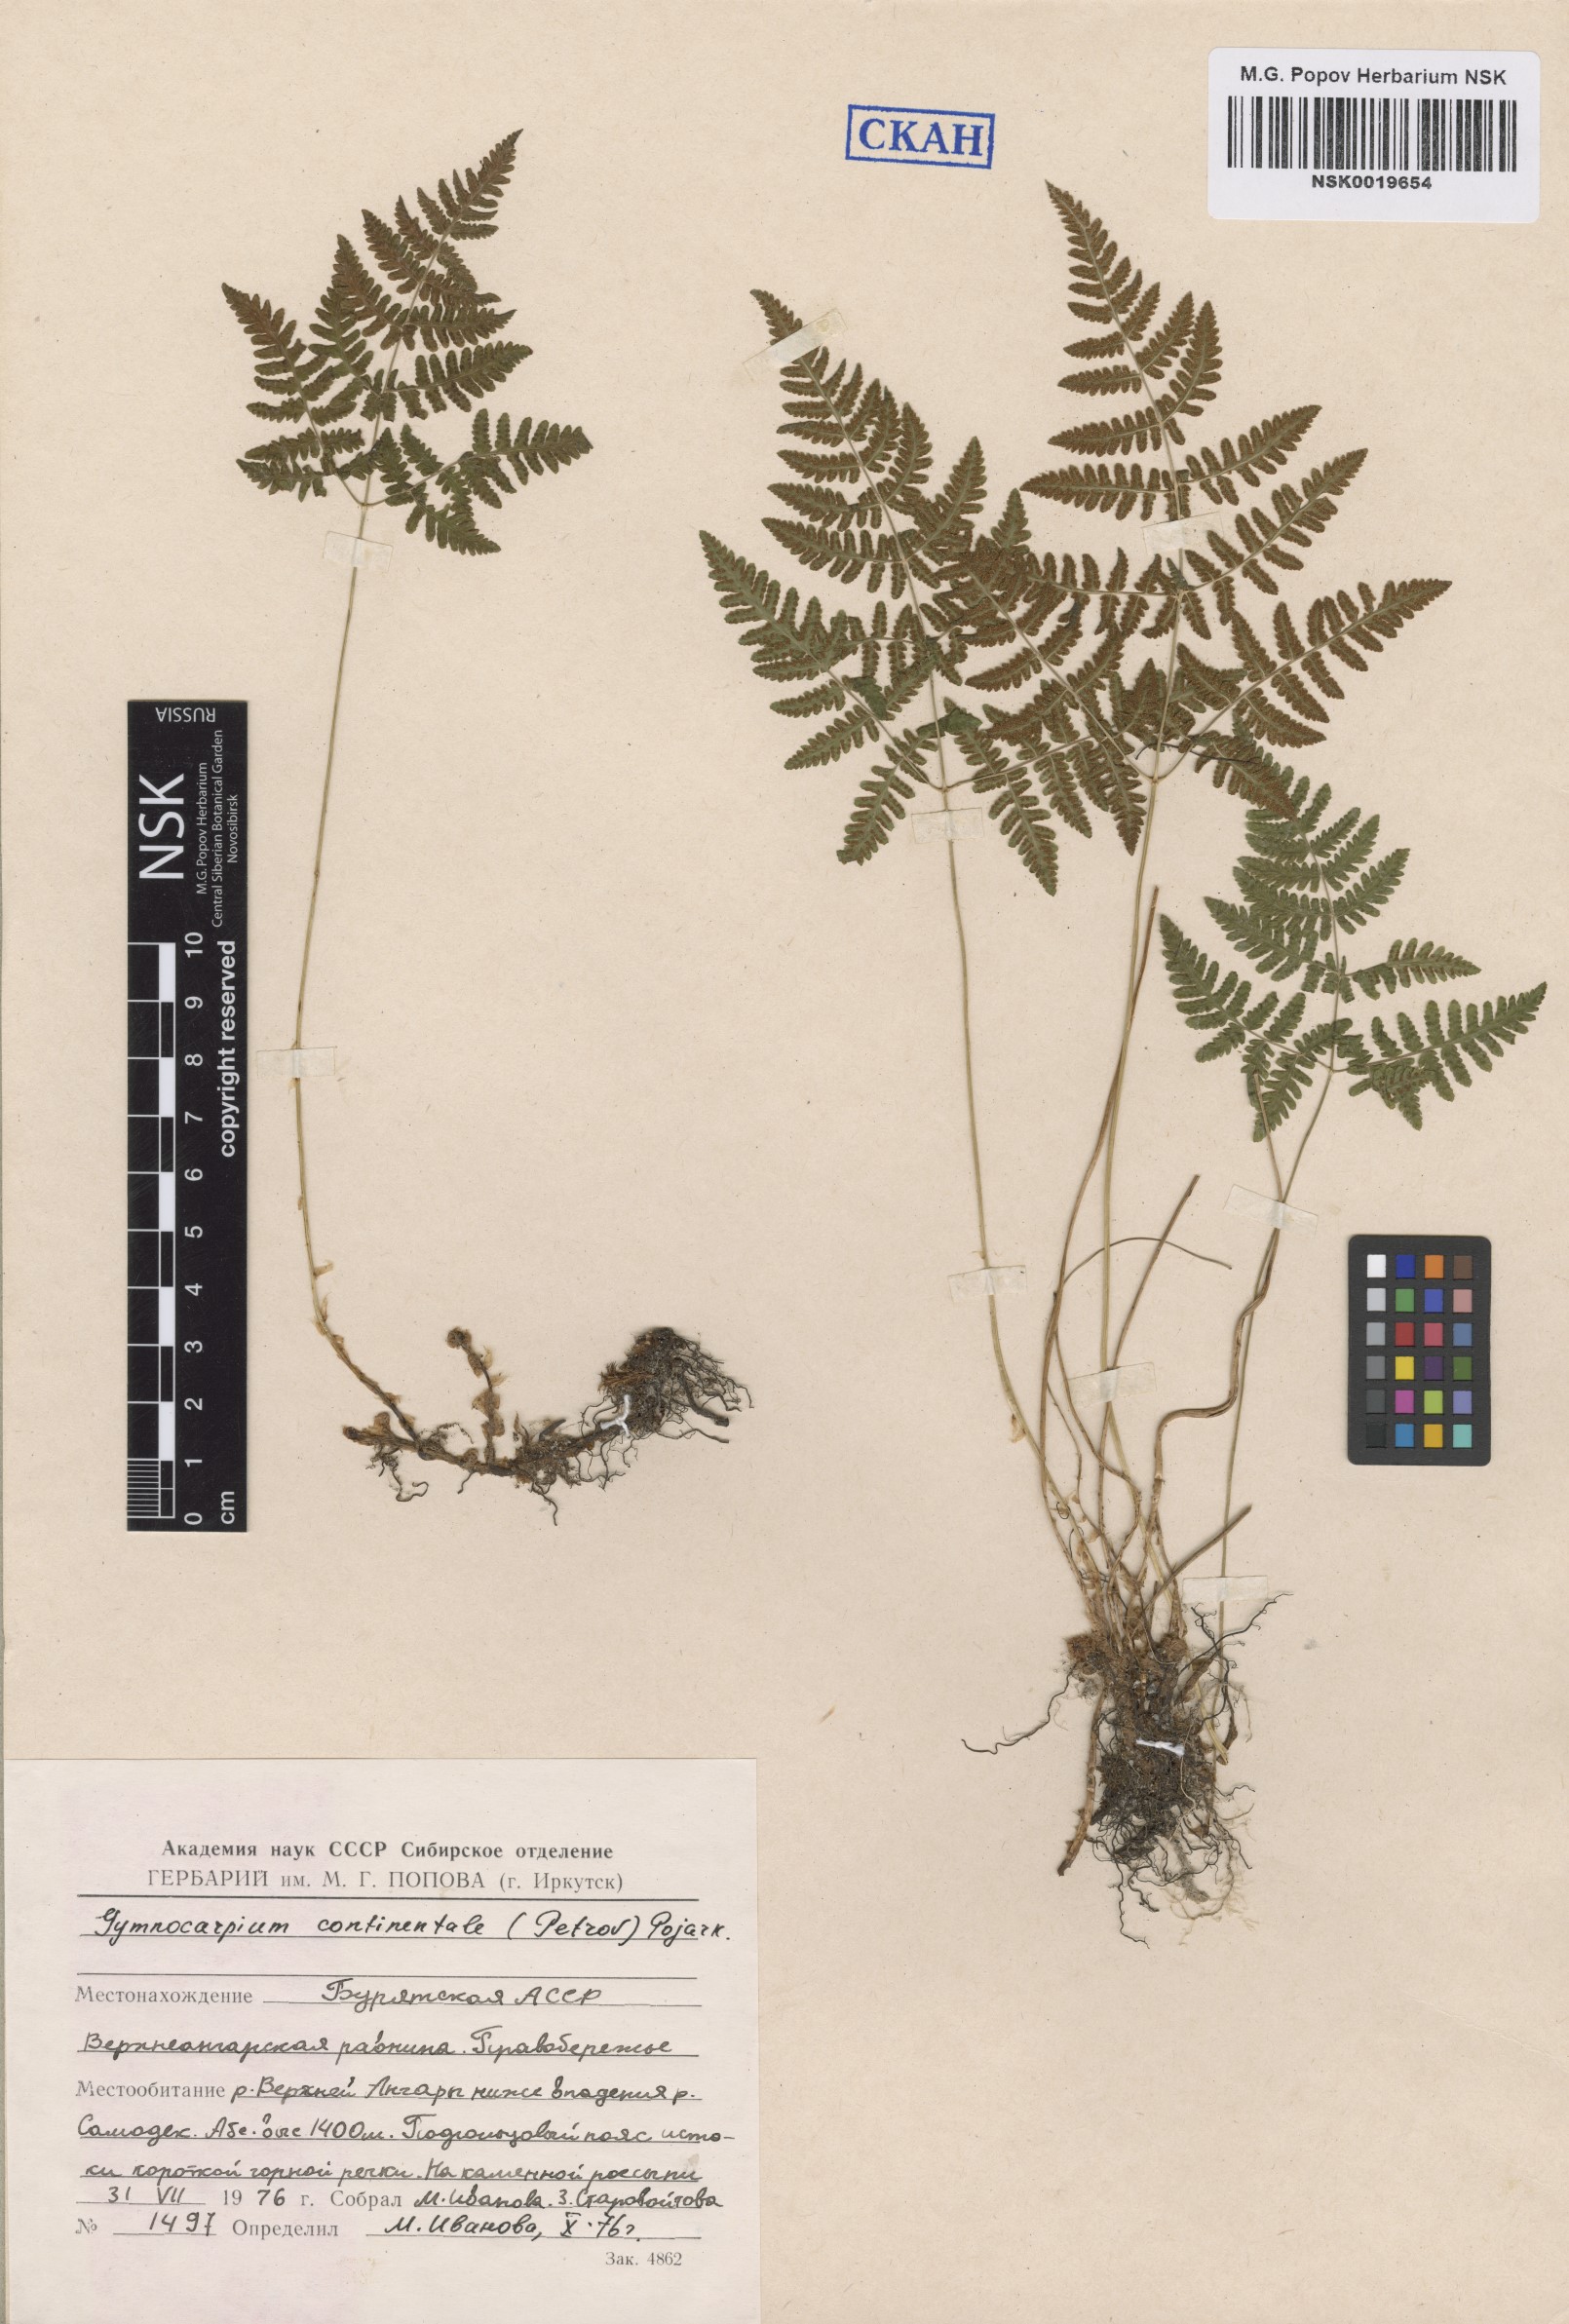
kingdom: Plantae
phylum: Tracheophyta
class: Polypodiopsida
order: Polypodiales
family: Cystopteridaceae
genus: Gymnocarpium
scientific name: Gymnocarpium continentale
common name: Asian oak fern
